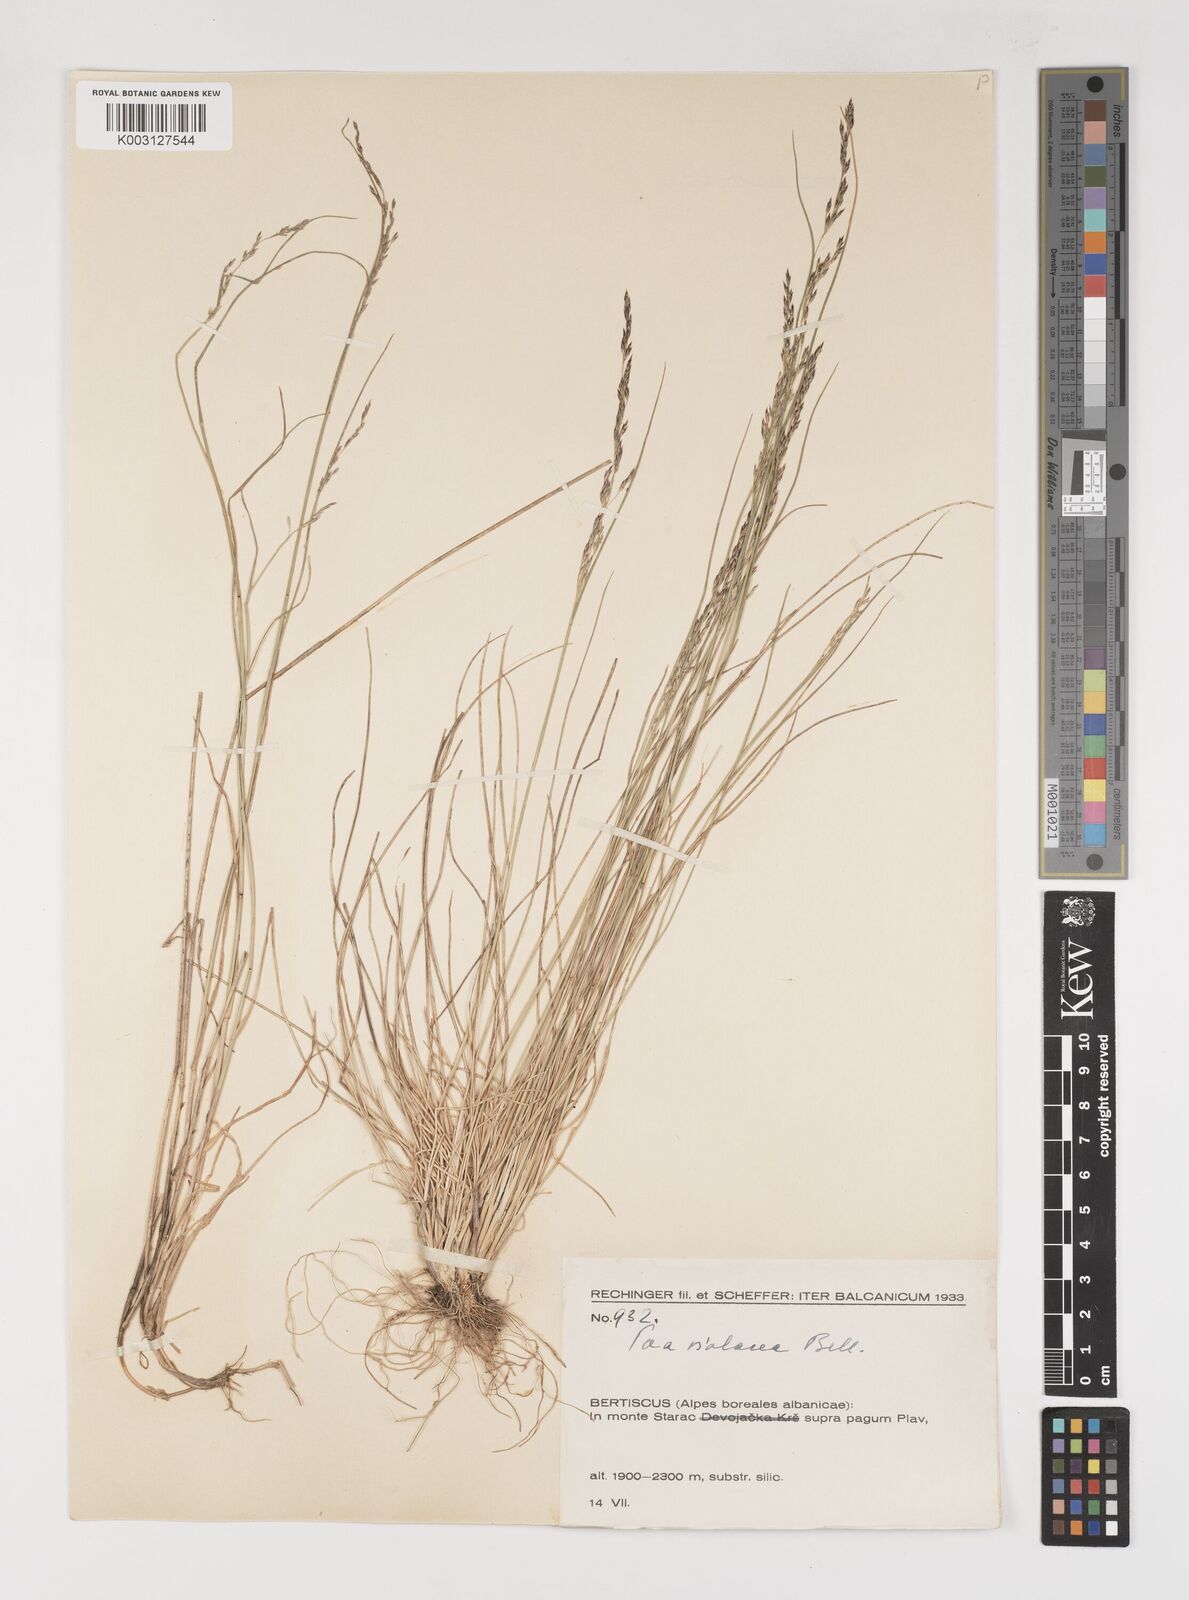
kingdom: Plantae
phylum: Tracheophyta
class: Liliopsida
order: Poales
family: Poaceae
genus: Bellardiochloa
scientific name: Bellardiochloa variegata
